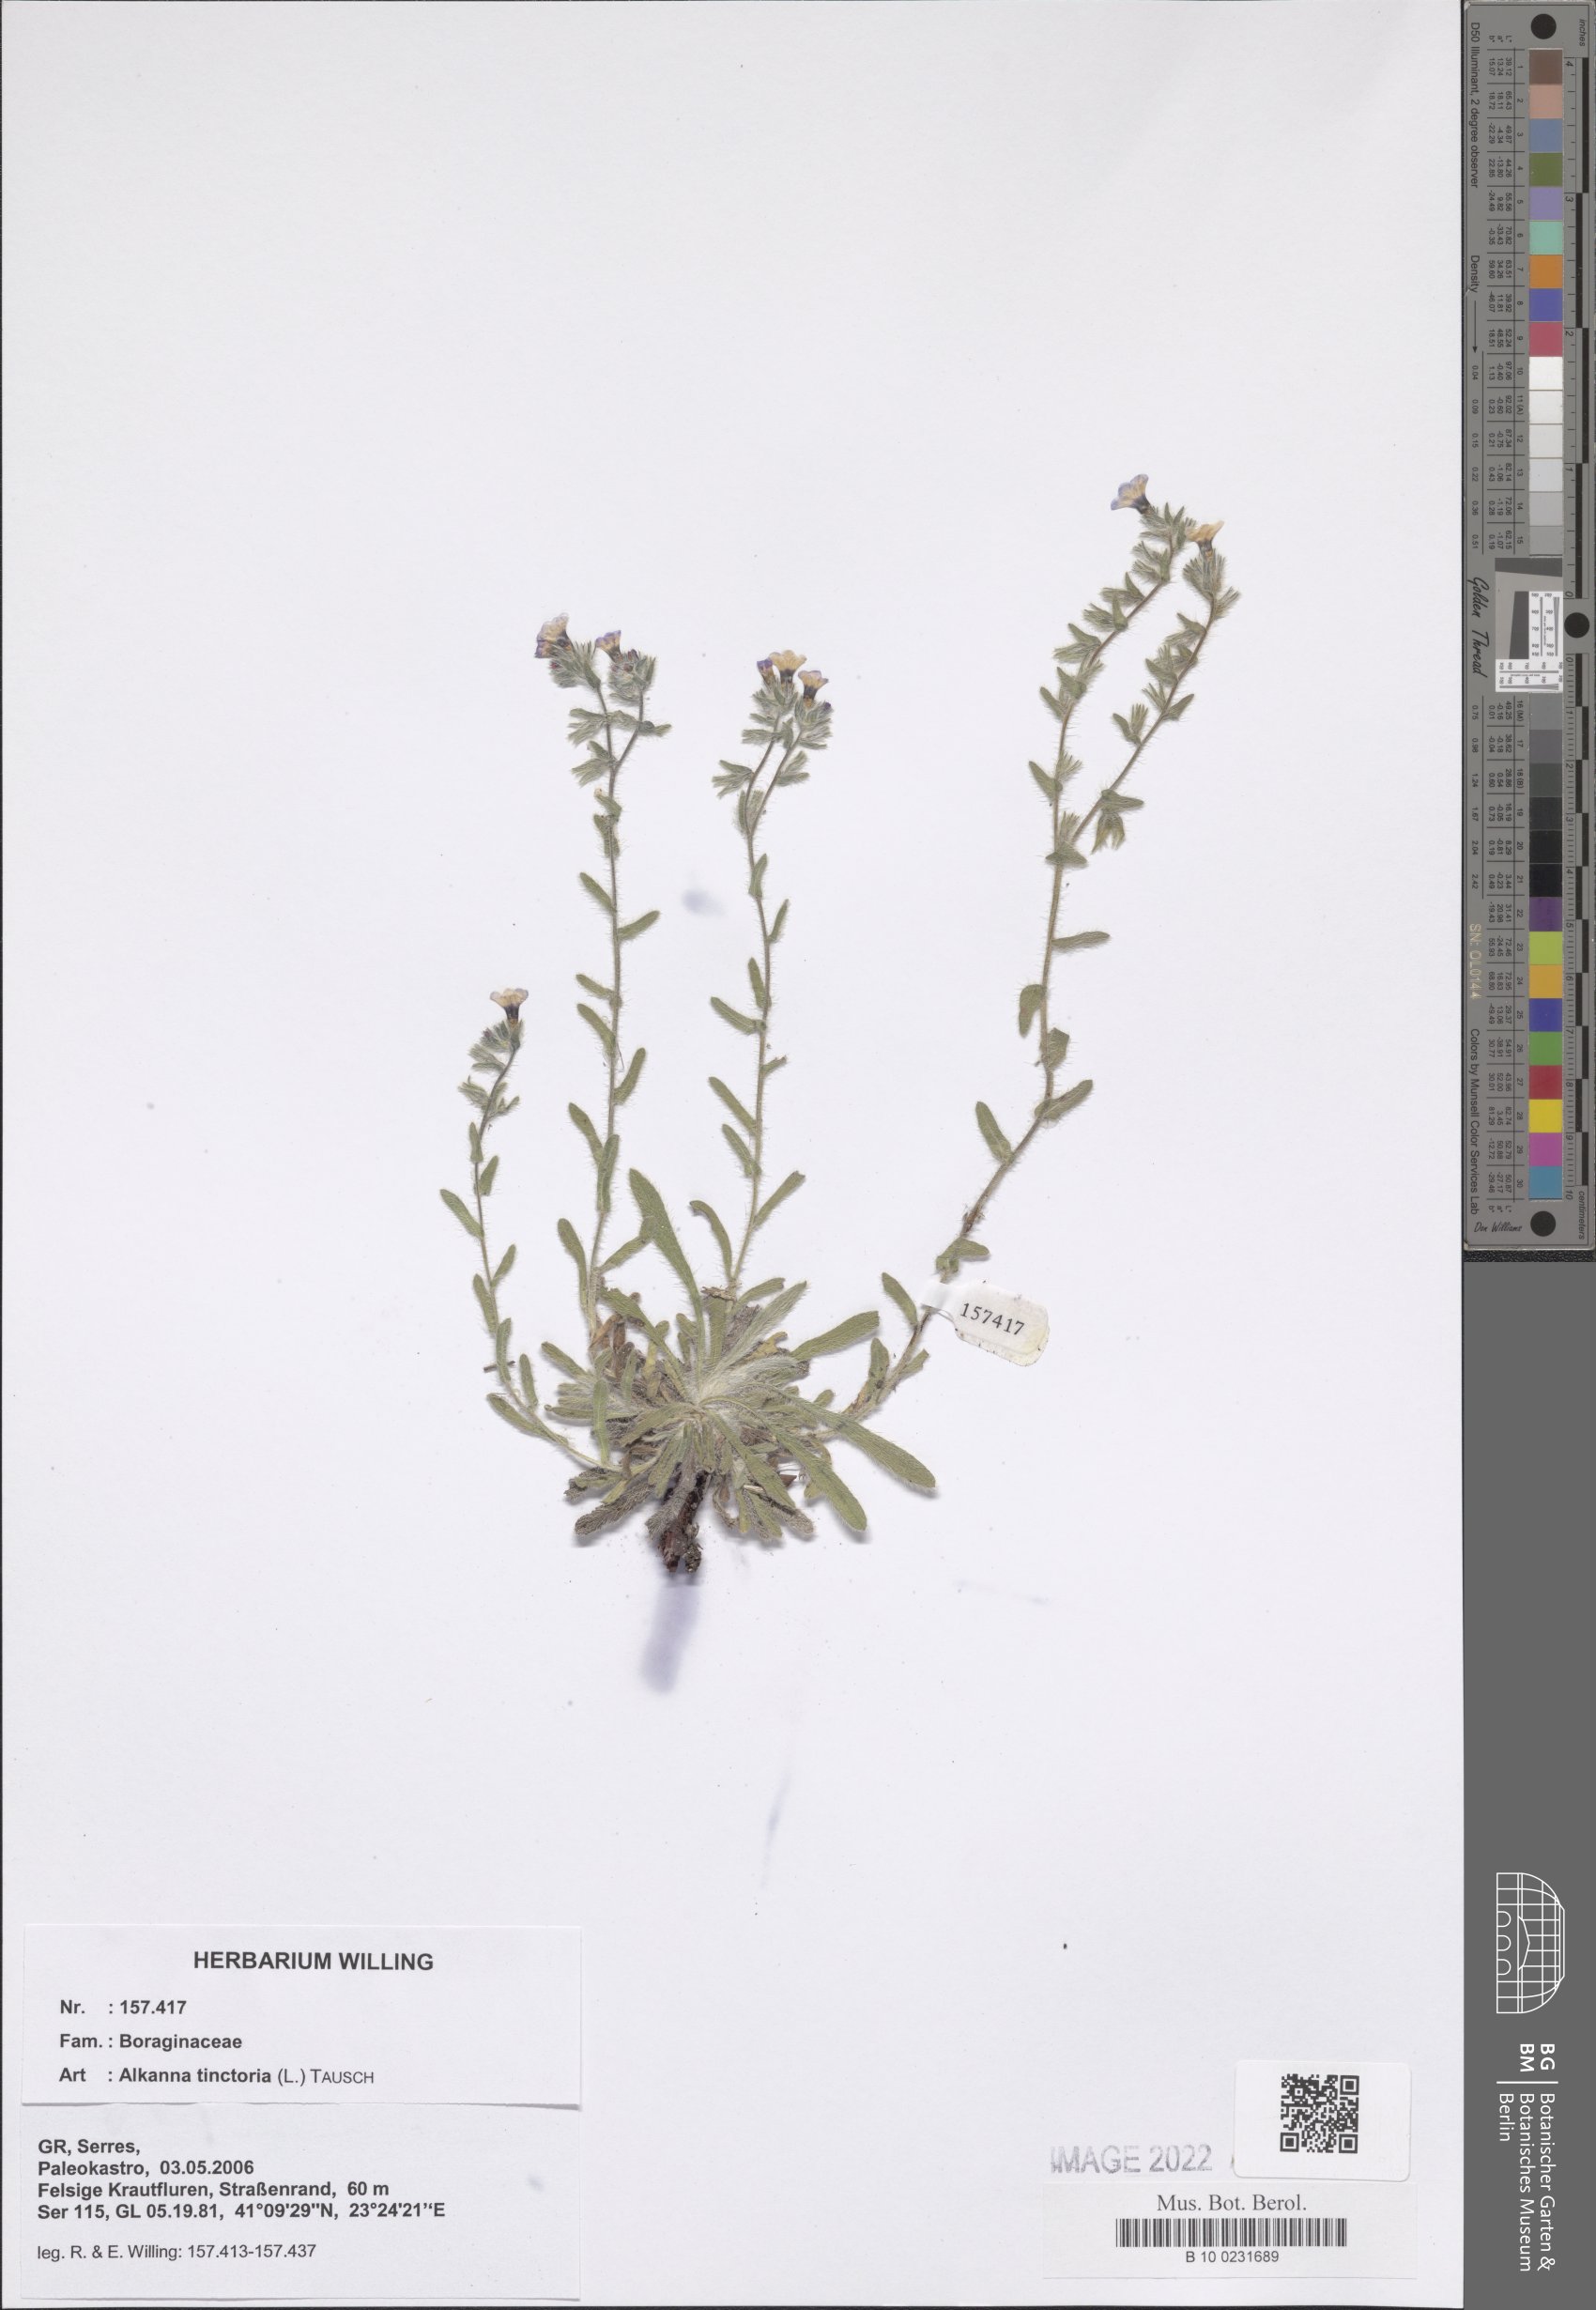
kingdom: Plantae
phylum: Tracheophyta
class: Magnoliopsida
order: Boraginales
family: Boraginaceae
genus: Alkanna
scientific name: Alkanna tinctoria
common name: Dyer's-alkanet
